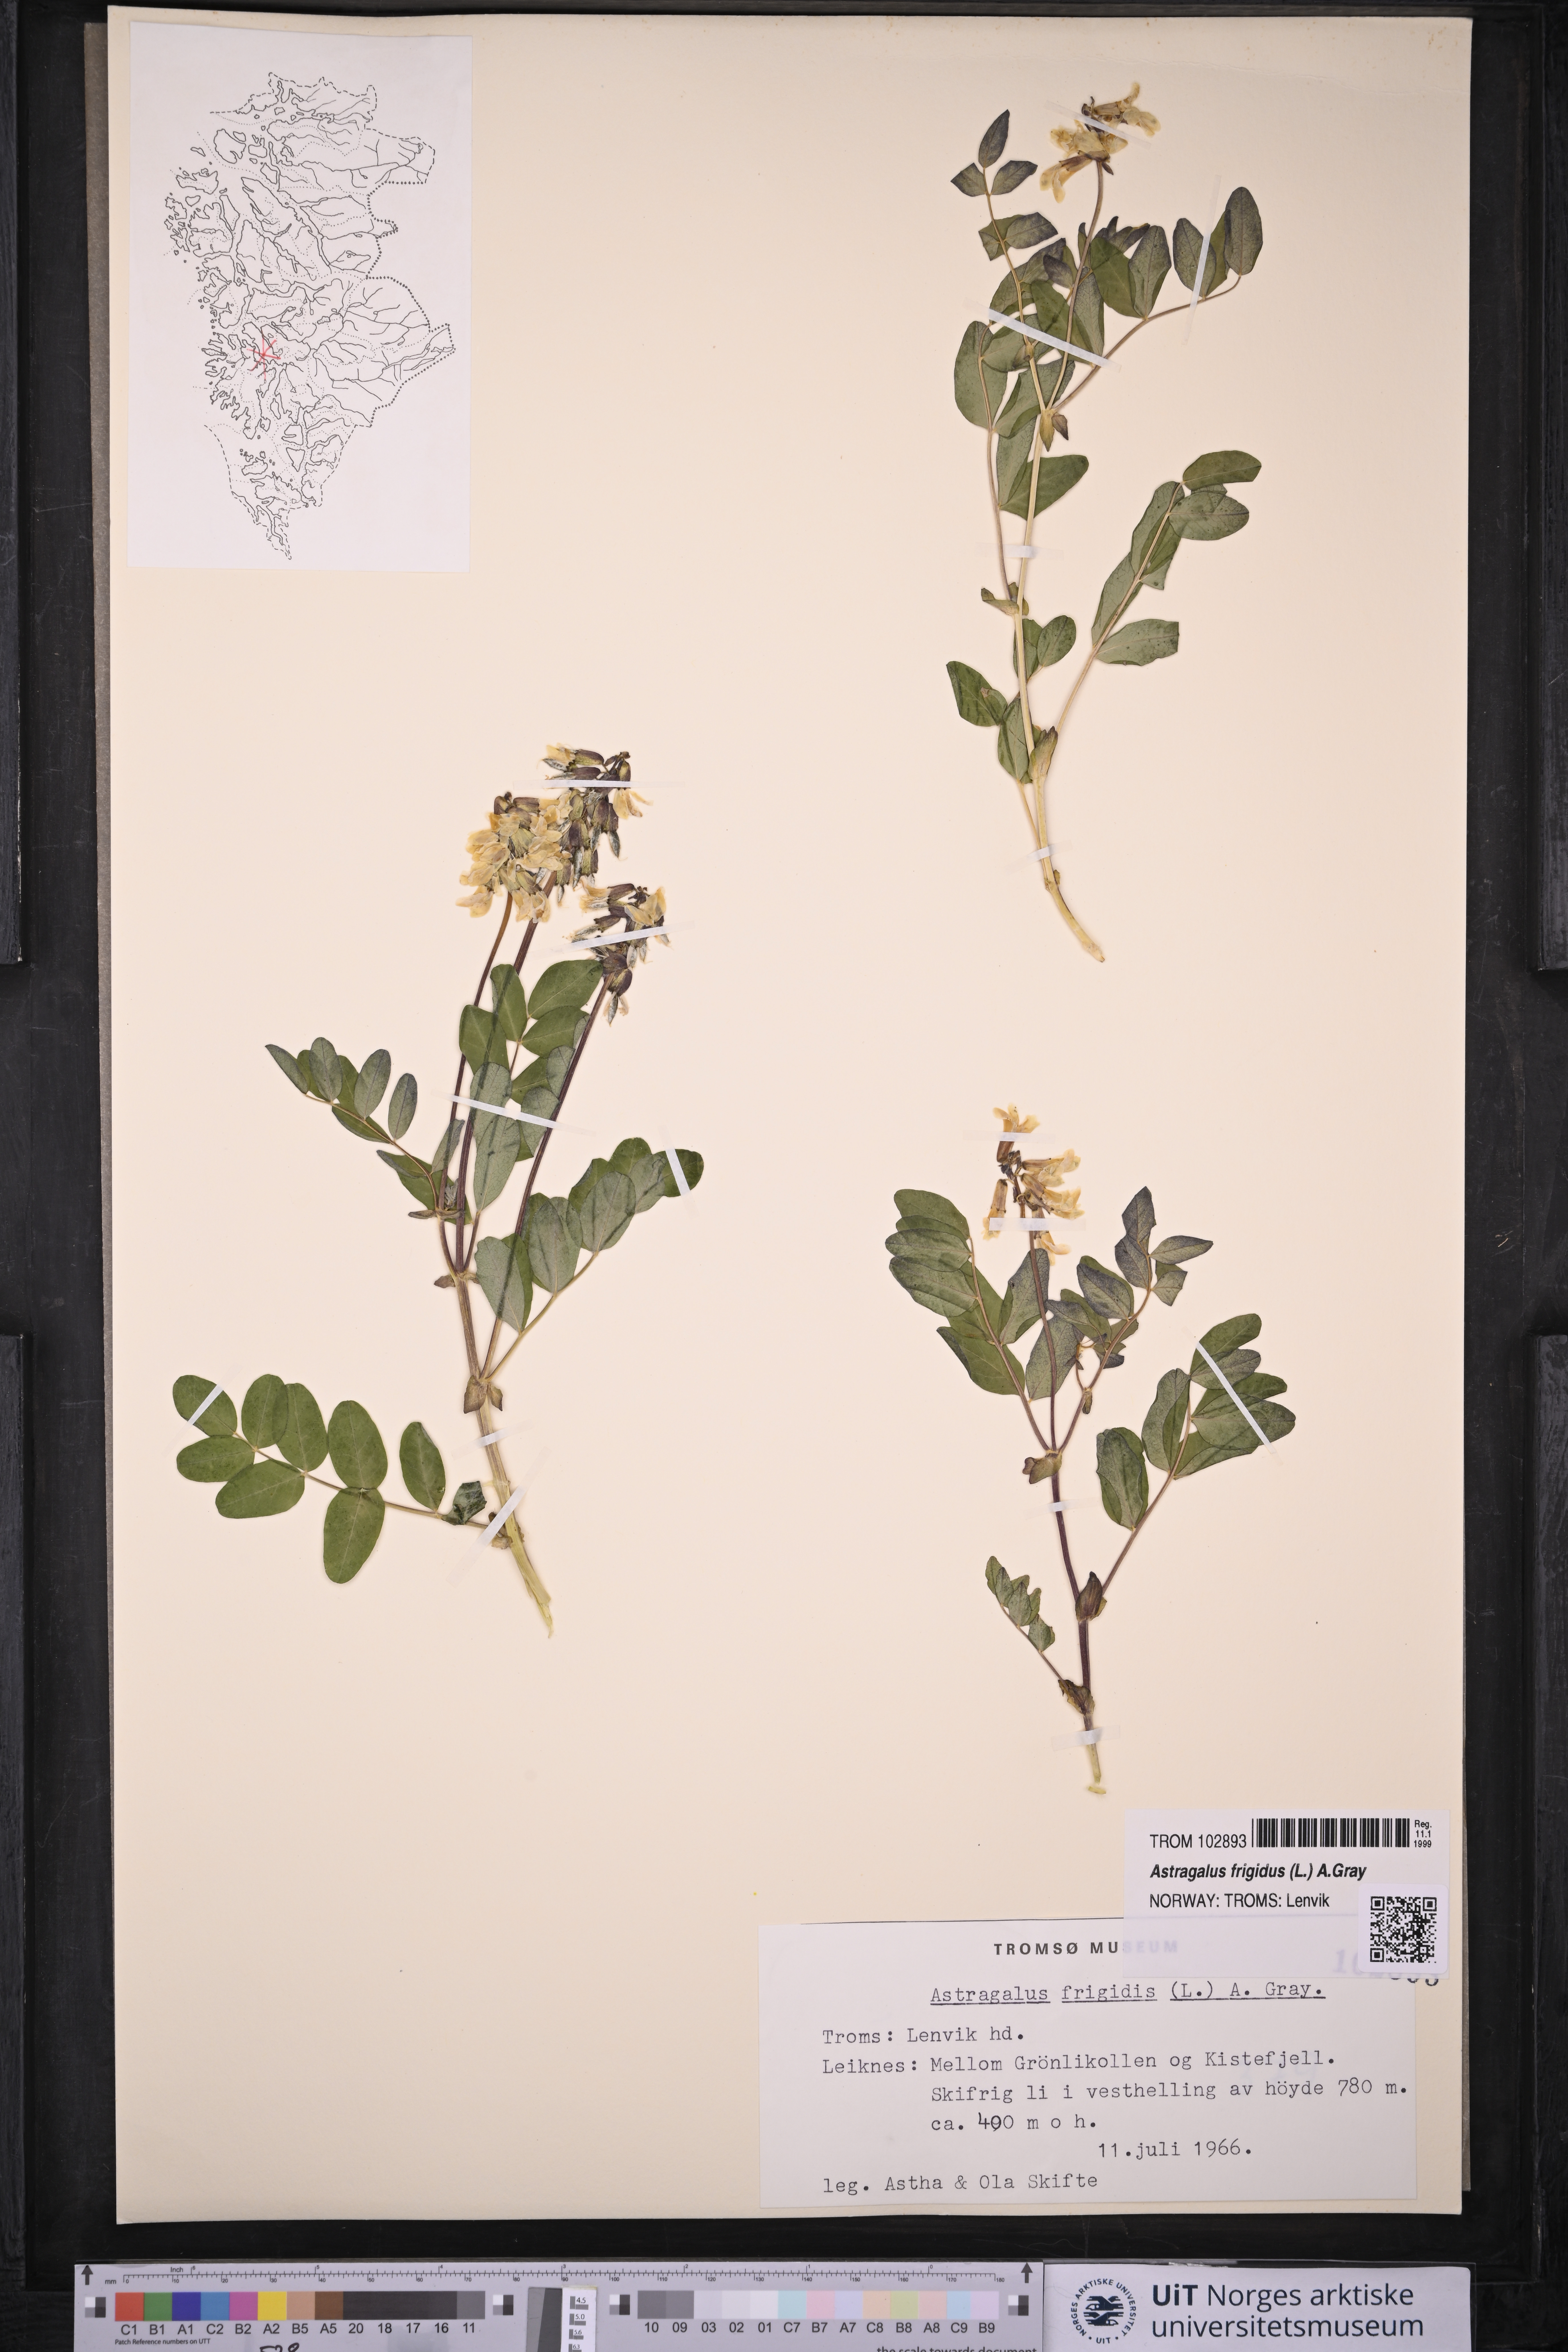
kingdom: Plantae
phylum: Tracheophyta
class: Magnoliopsida
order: Fabales
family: Fabaceae
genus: Astragalus
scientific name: Astragalus frigidus
